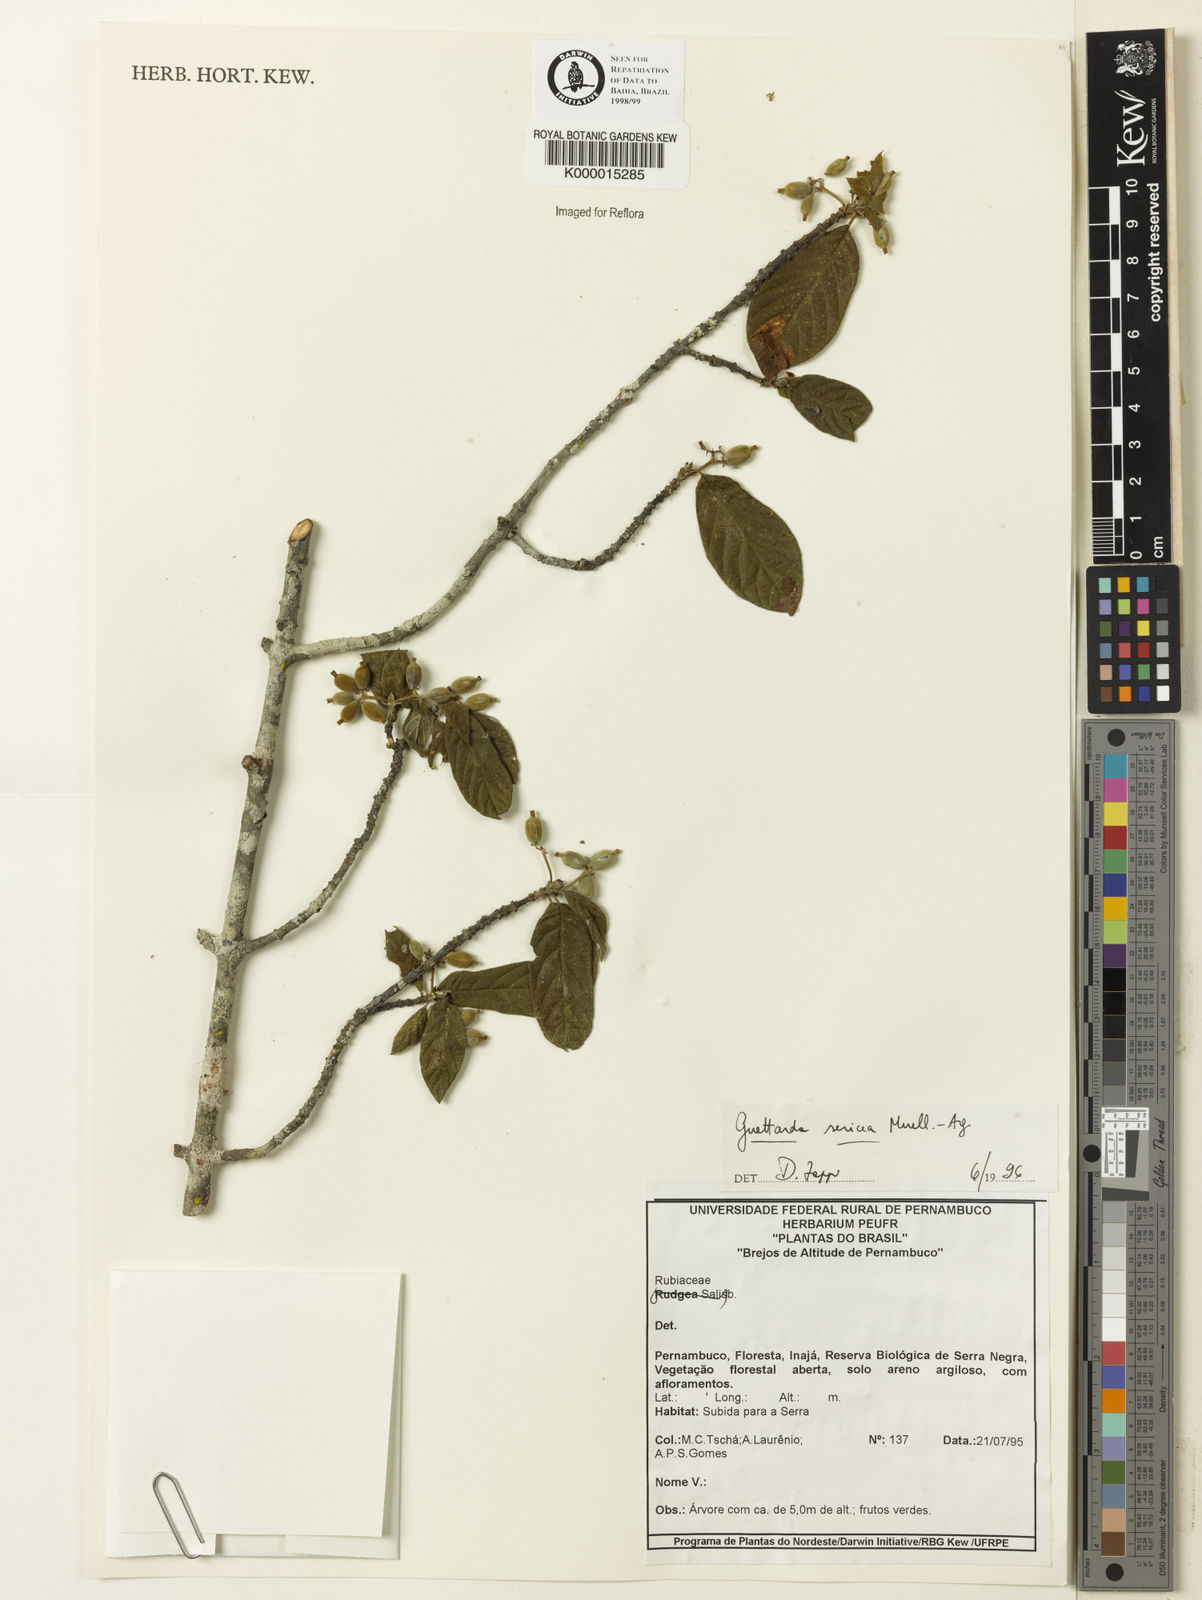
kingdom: Plantae
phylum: Tracheophyta
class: Magnoliopsida
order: Gentianales
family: Rubiaceae
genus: Guettarda
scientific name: Guettarda sericea
